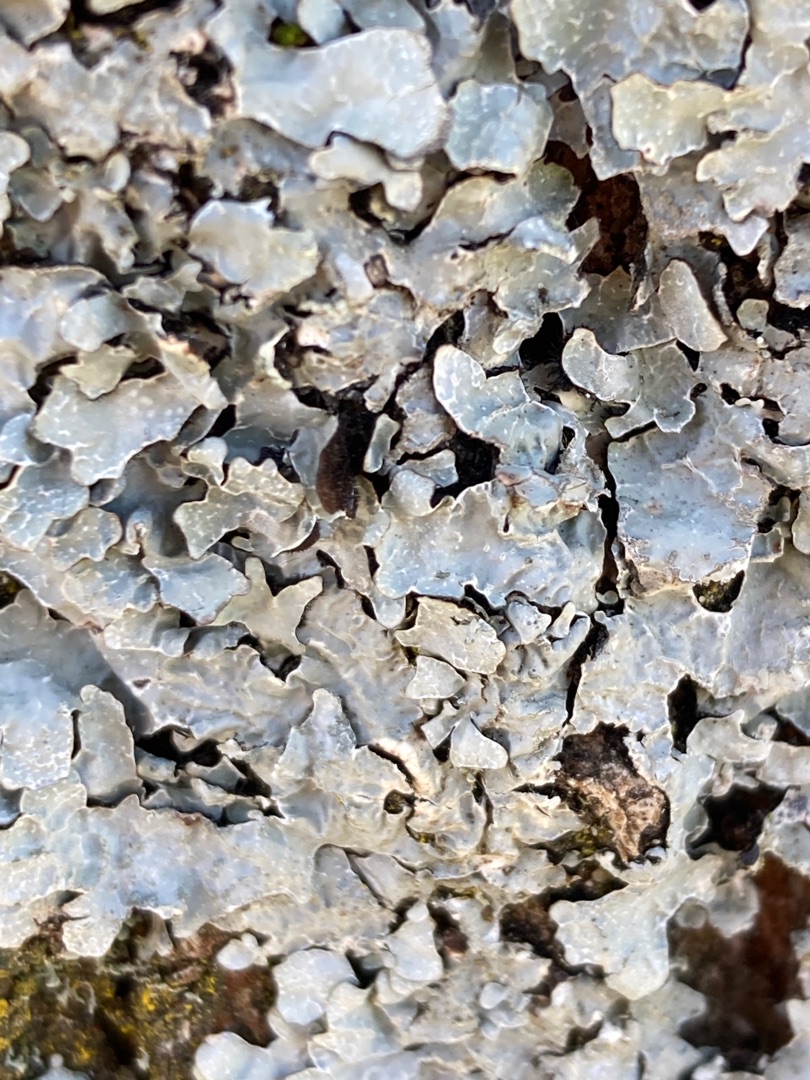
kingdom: Fungi
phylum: Ascomycota
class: Lecanoromycetes
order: Lecanorales
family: Parmeliaceae
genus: Parmelia
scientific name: Parmelia sulcata
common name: Rynket skållav
